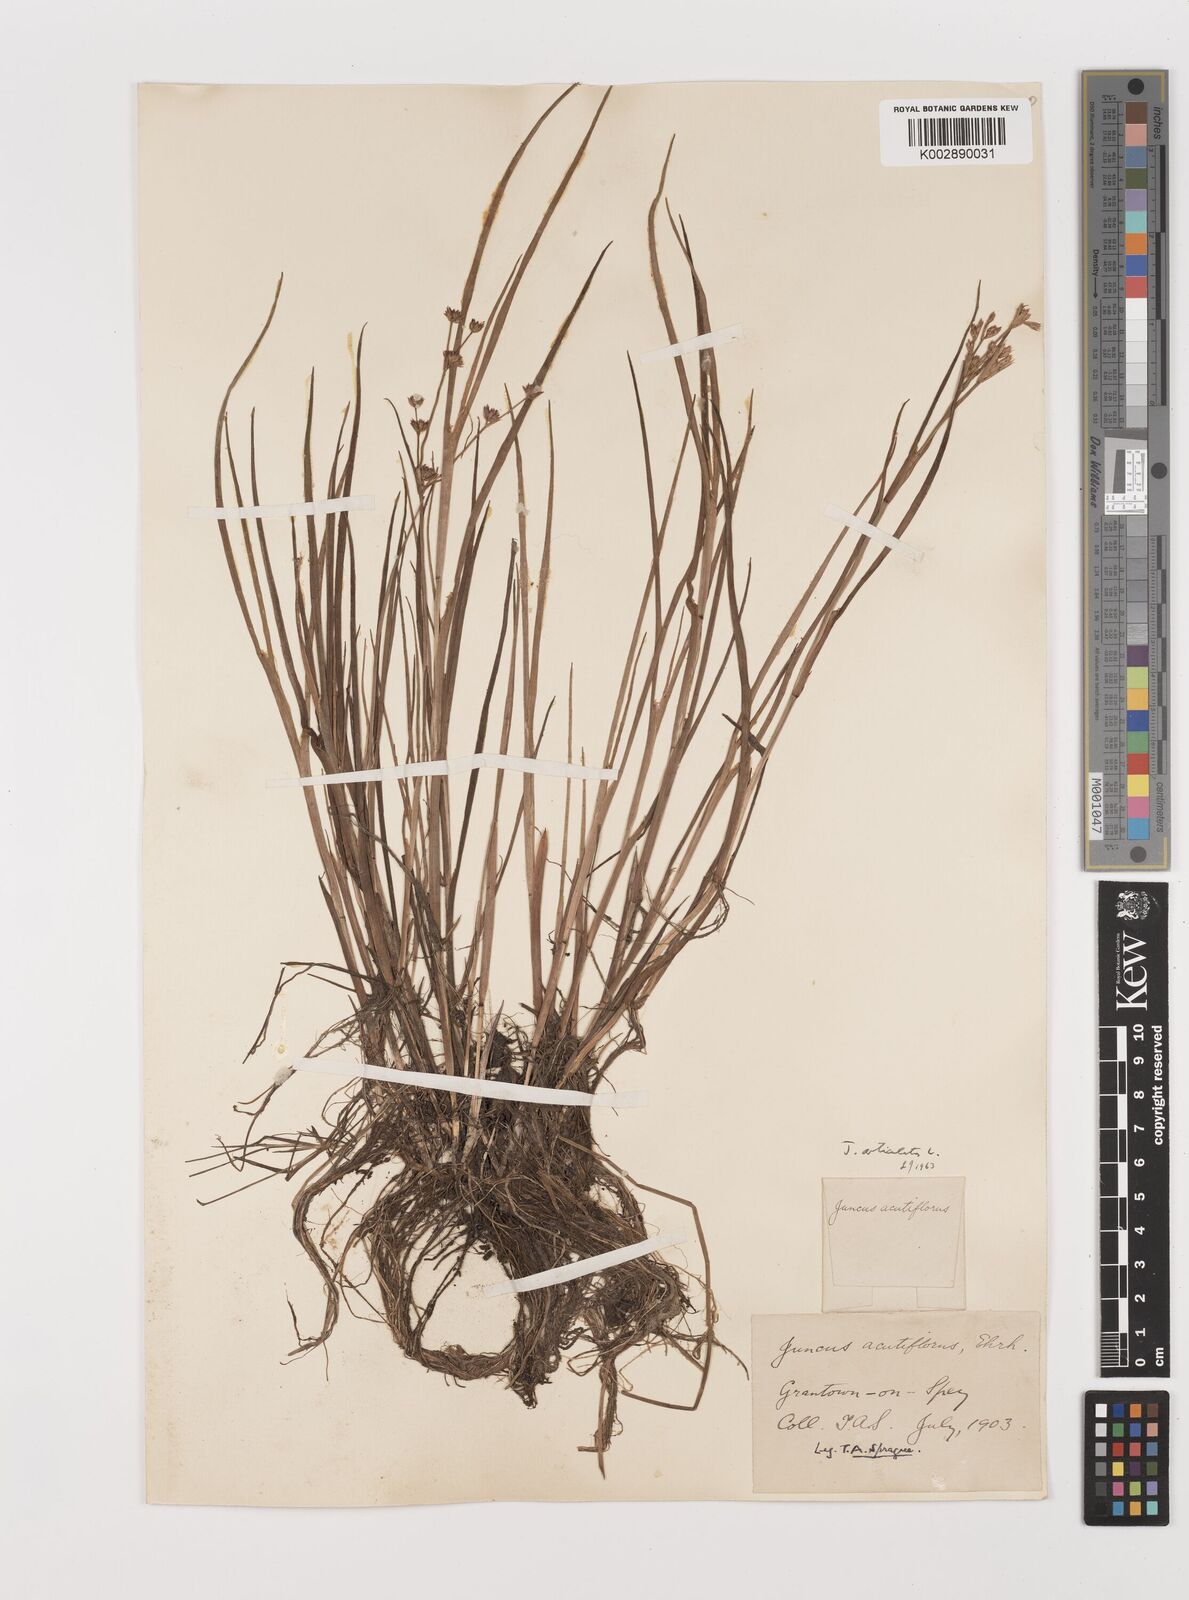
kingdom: Plantae
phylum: Tracheophyta
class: Liliopsida
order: Poales
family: Juncaceae
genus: Juncus
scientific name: Juncus articulatus
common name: Jointed rush
